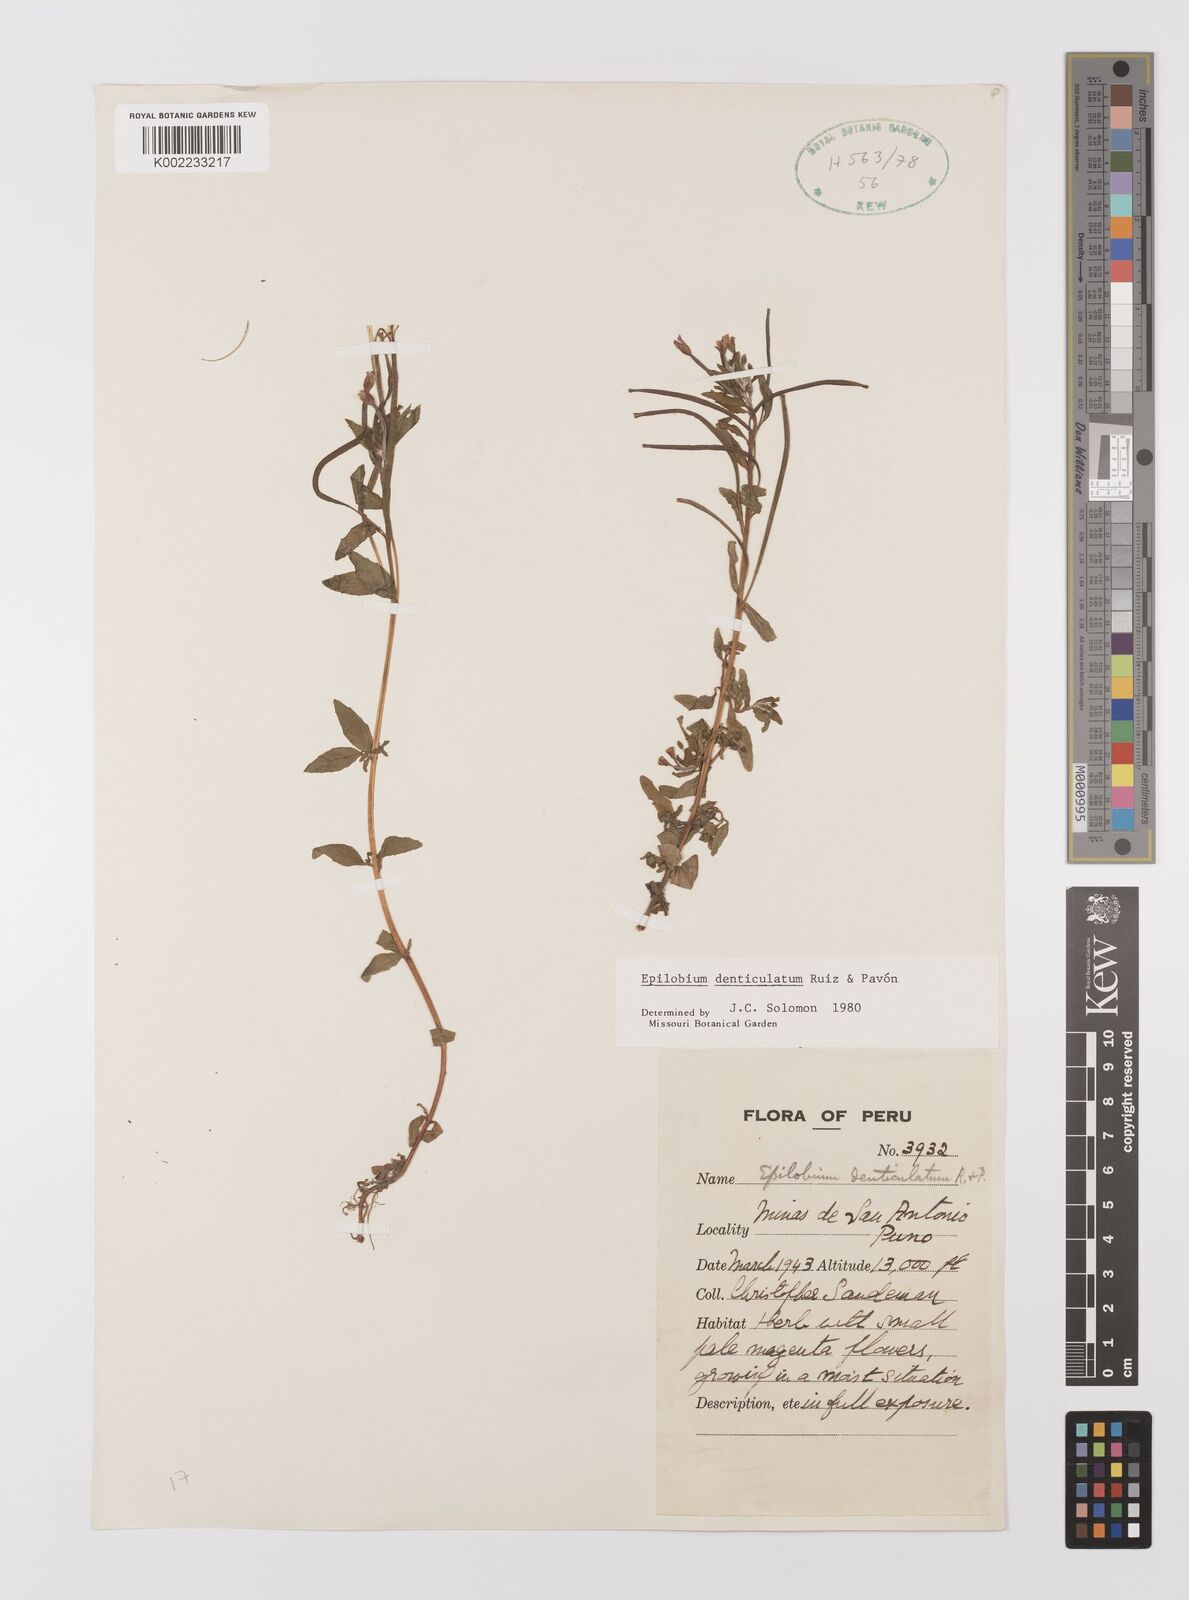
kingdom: Plantae
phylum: Tracheophyta
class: Magnoliopsida
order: Myrtales
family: Onagraceae
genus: Epilobium
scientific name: Epilobium denticulatum
